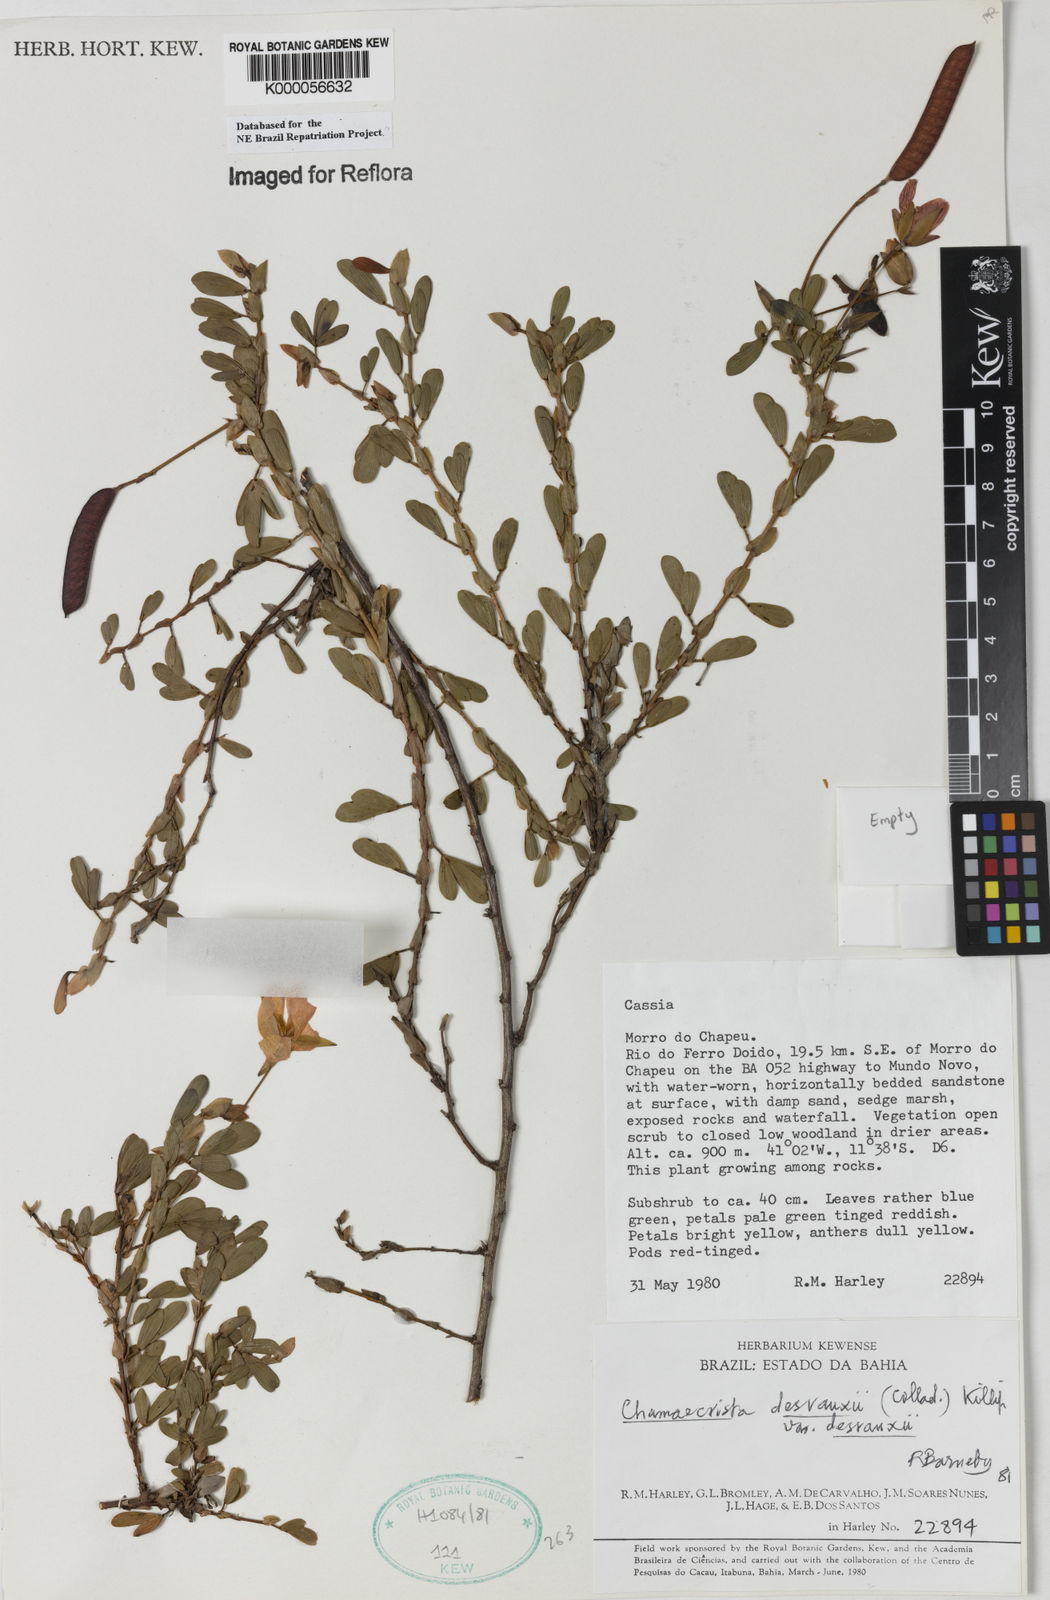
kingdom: Plantae
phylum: Tracheophyta
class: Magnoliopsida
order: Fabales
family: Fabaceae
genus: Chamaecrista
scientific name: Chamaecrista desvauxii
